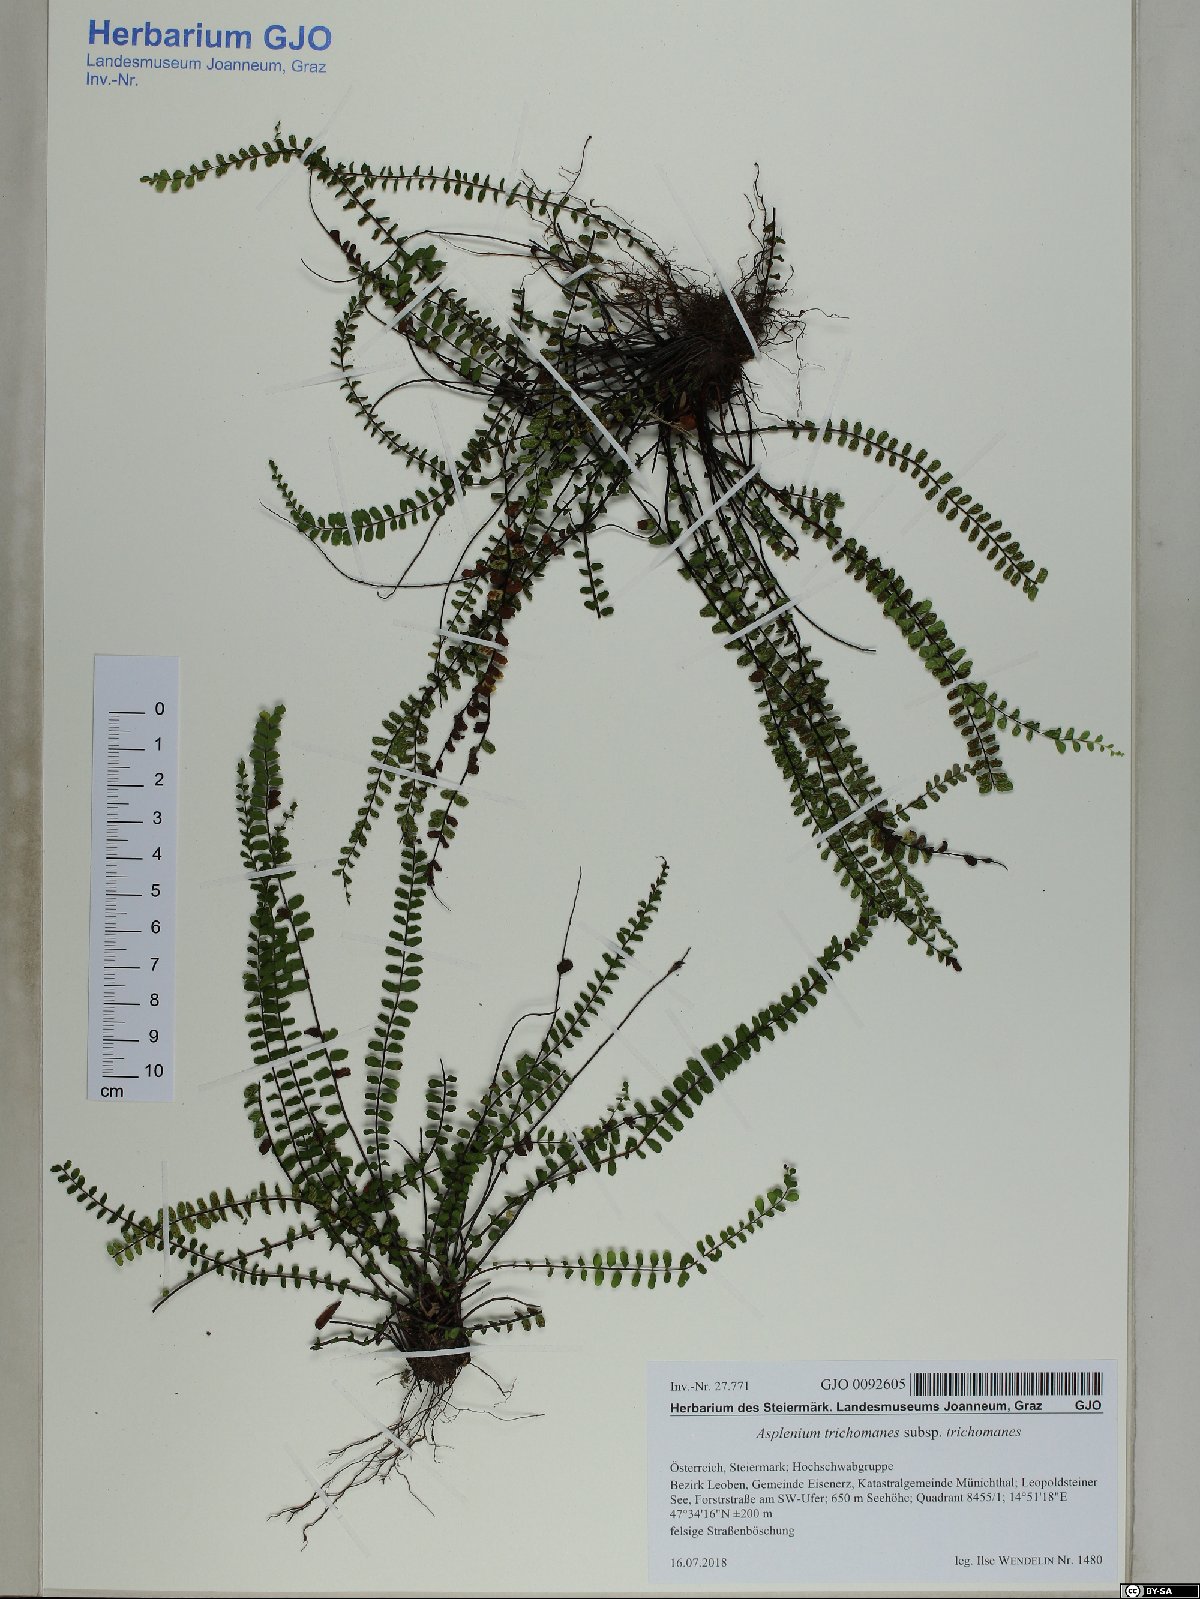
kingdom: Plantae
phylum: Tracheophyta
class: Polypodiopsida
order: Polypodiales
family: Aspleniaceae
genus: Asplenium
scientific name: Asplenium trichomanes
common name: Maidenhair spleenwort
